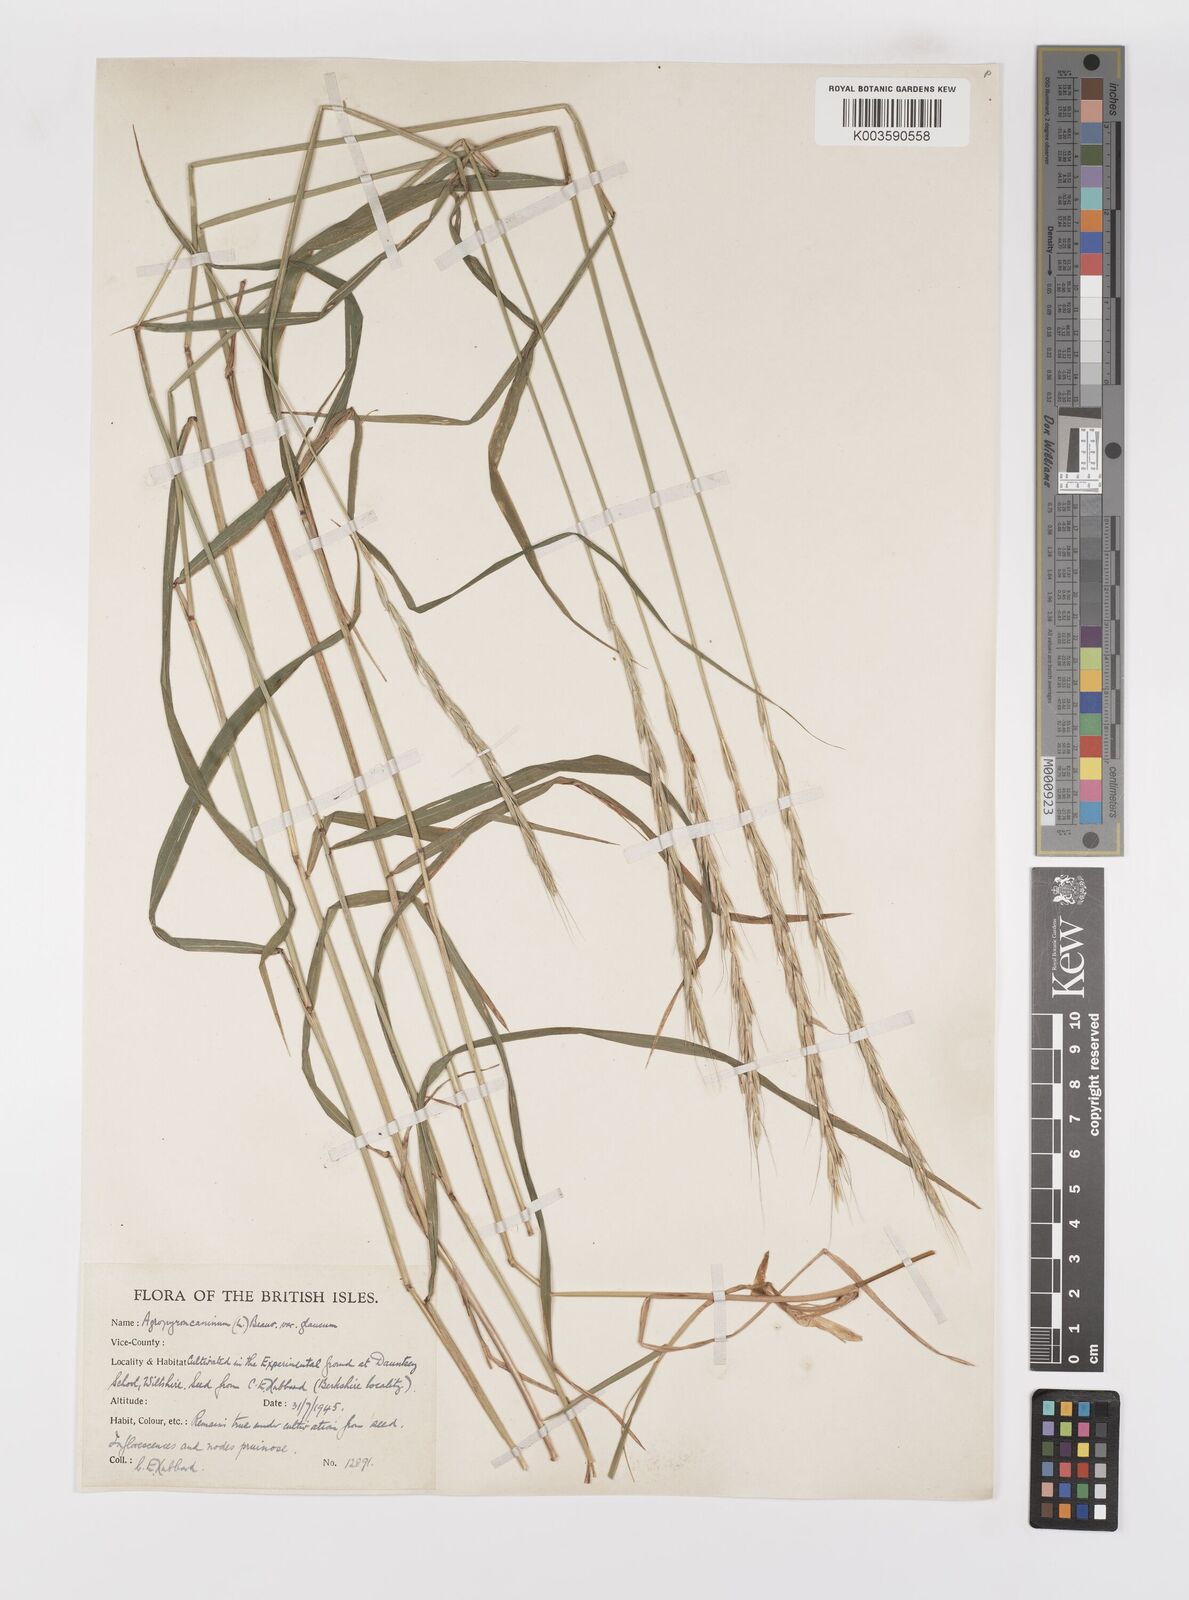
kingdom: Plantae
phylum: Tracheophyta
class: Liliopsida
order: Poales
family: Poaceae
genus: Elymus
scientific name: Elymus caninus
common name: Bearded couch
